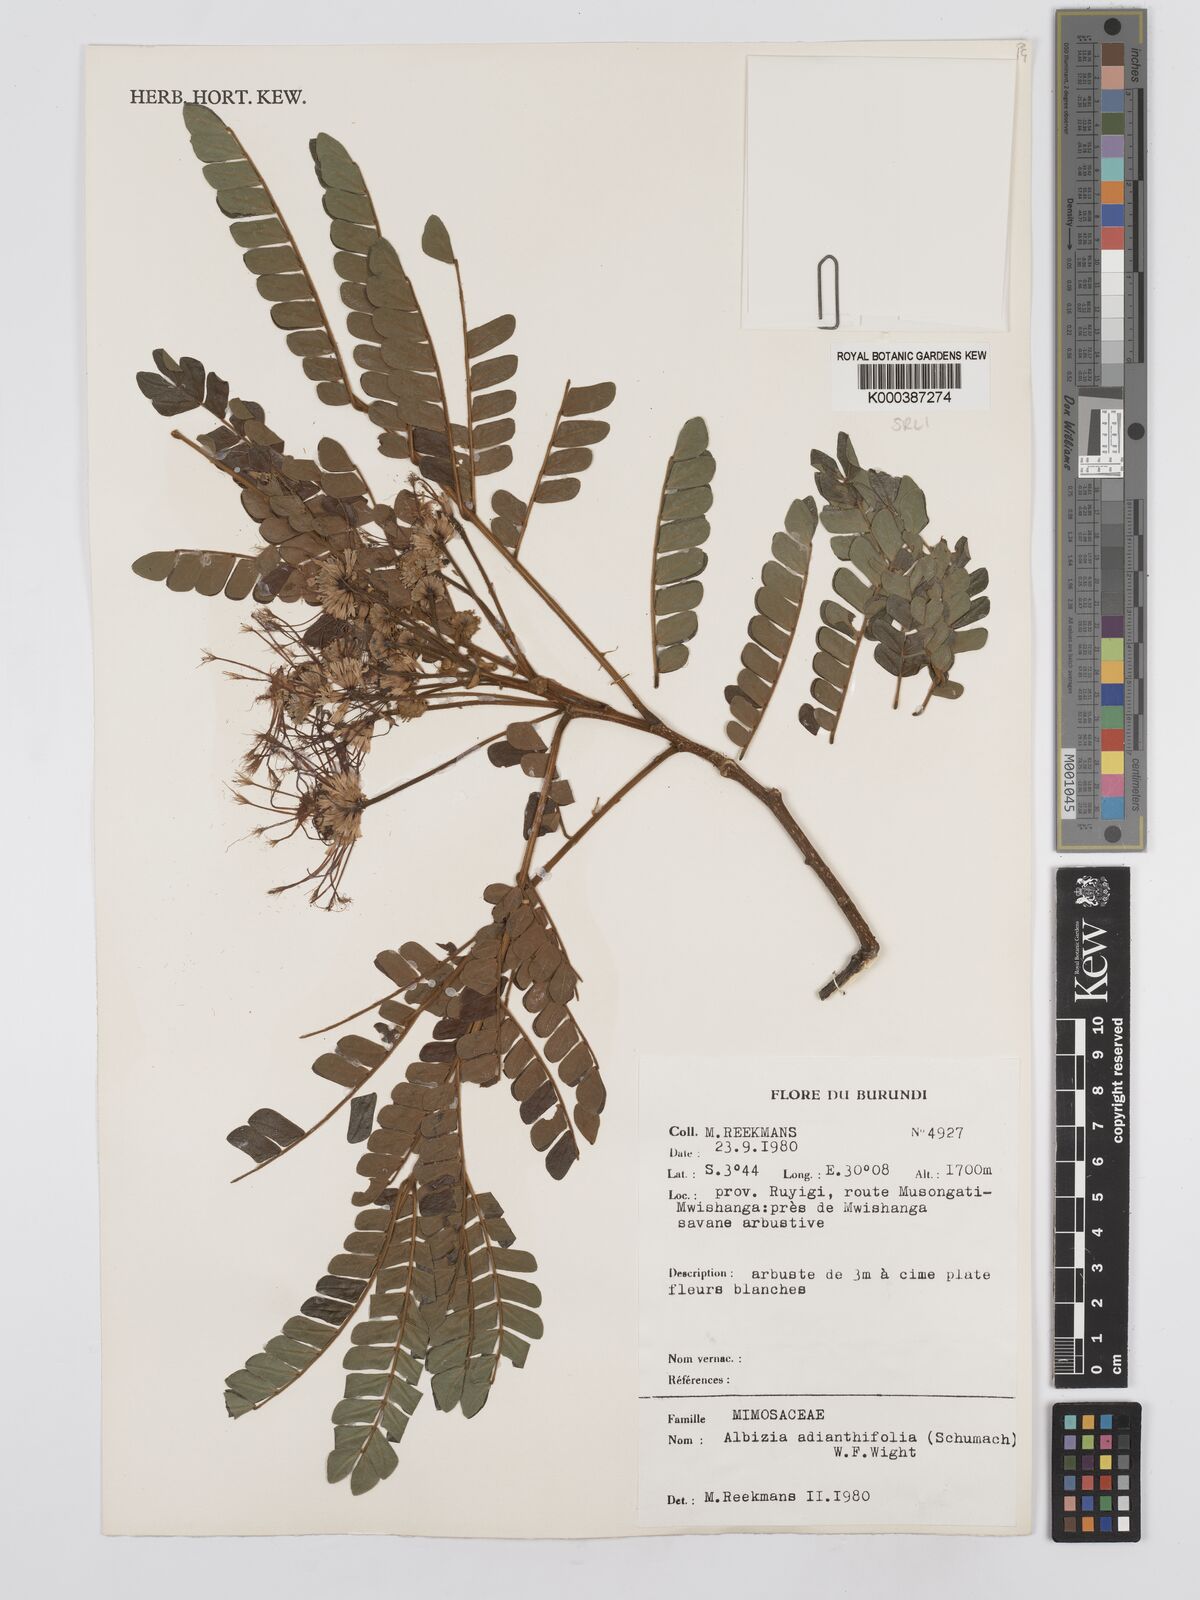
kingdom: Plantae
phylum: Tracheophyta
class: Magnoliopsida
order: Fabales
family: Fabaceae
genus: Albizia
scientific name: Albizia adianthifolia
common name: West african albizia
